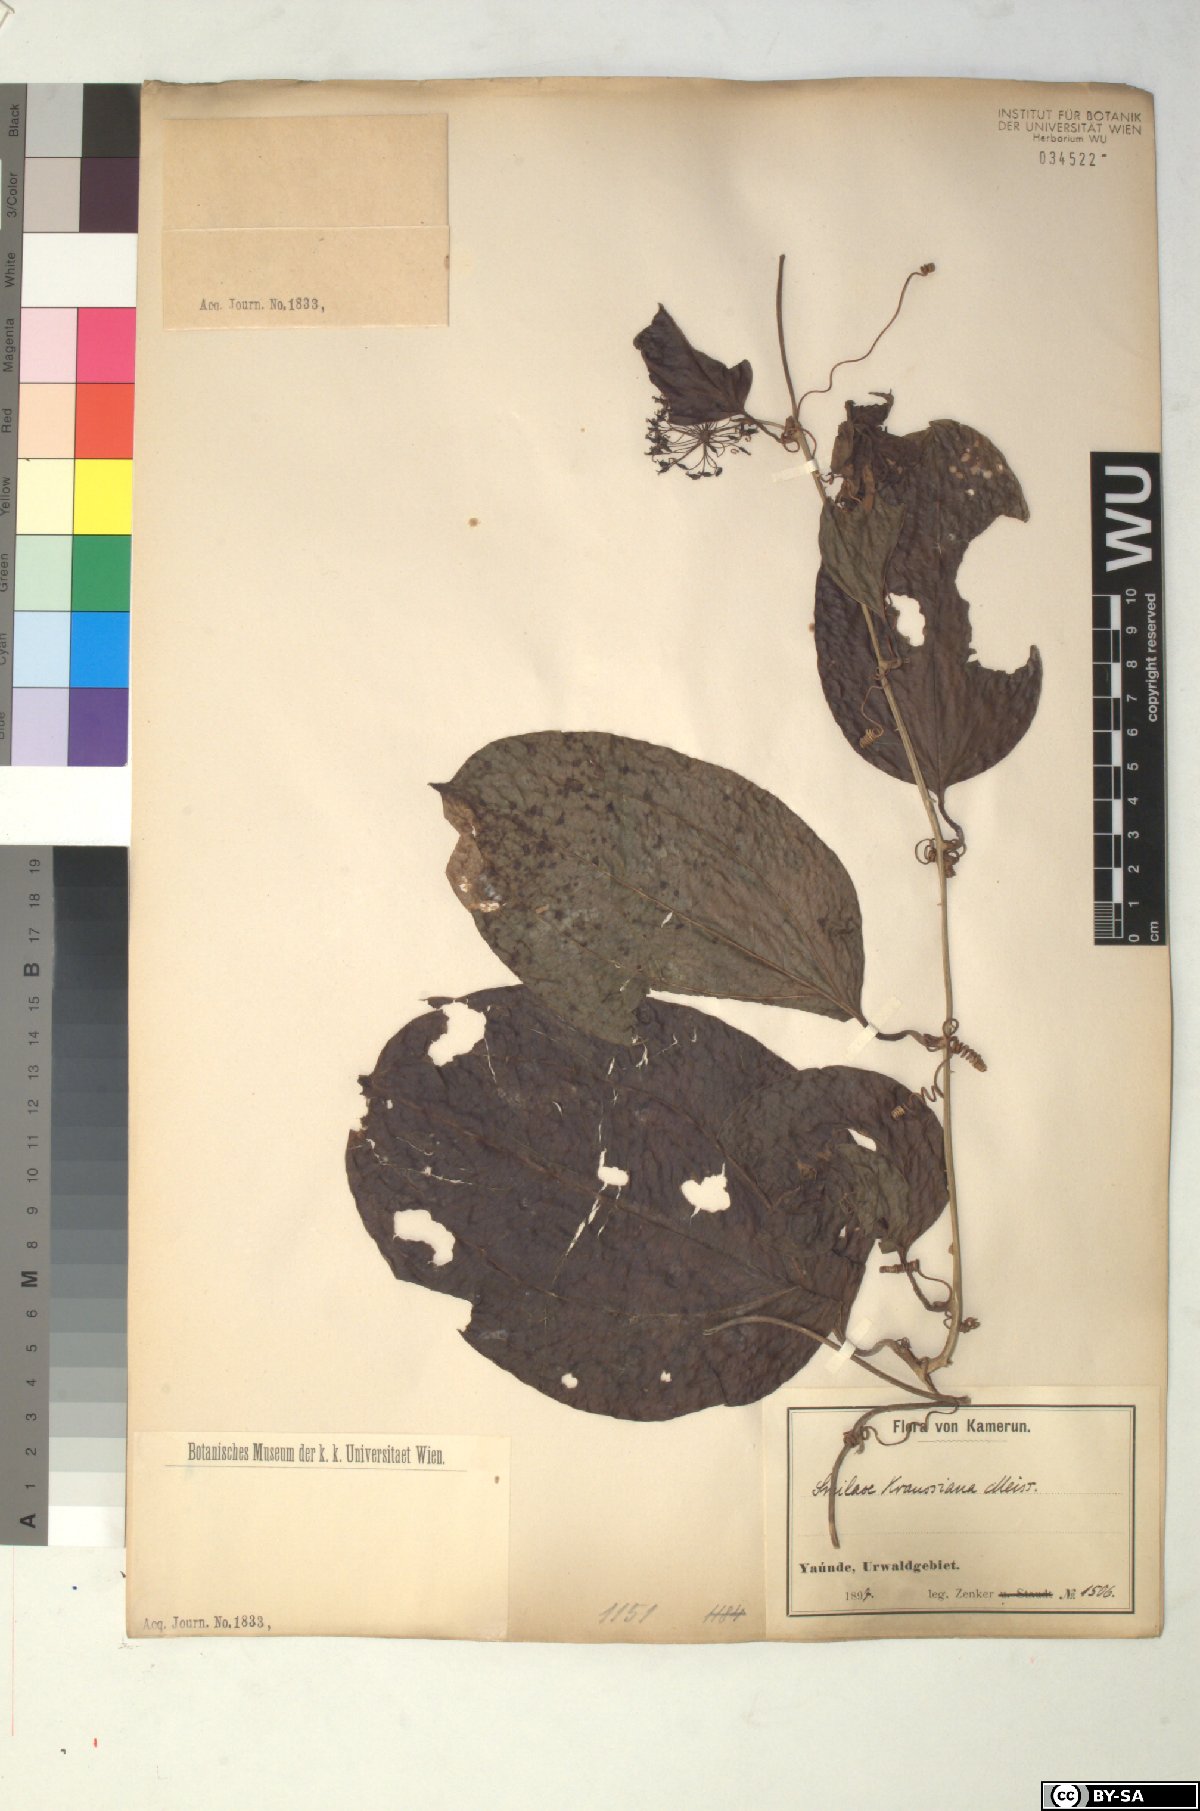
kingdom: Plantae
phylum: Tracheophyta
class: Liliopsida
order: Liliales
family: Smilacaceae
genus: Smilax
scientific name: Smilax anceps
